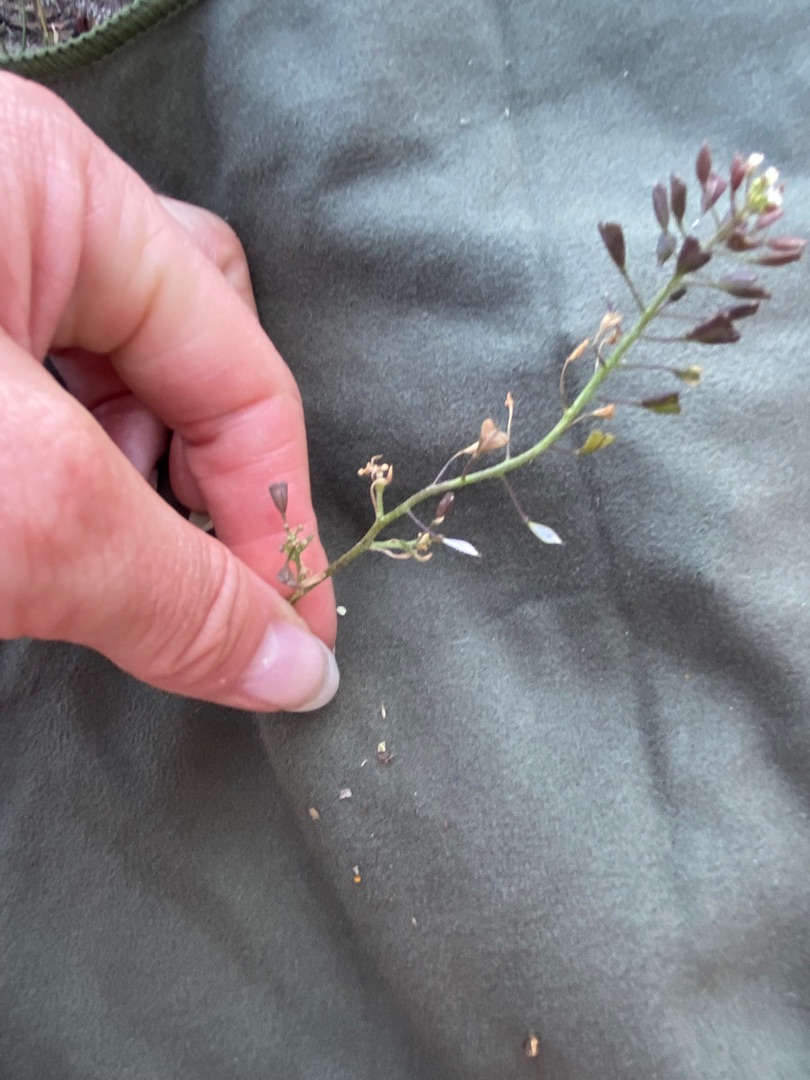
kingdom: Plantae
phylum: Tracheophyta
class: Magnoliopsida
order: Brassicales
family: Brassicaceae
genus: Capsella
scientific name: Capsella bursa-pastoris
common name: Hyrdetaske
